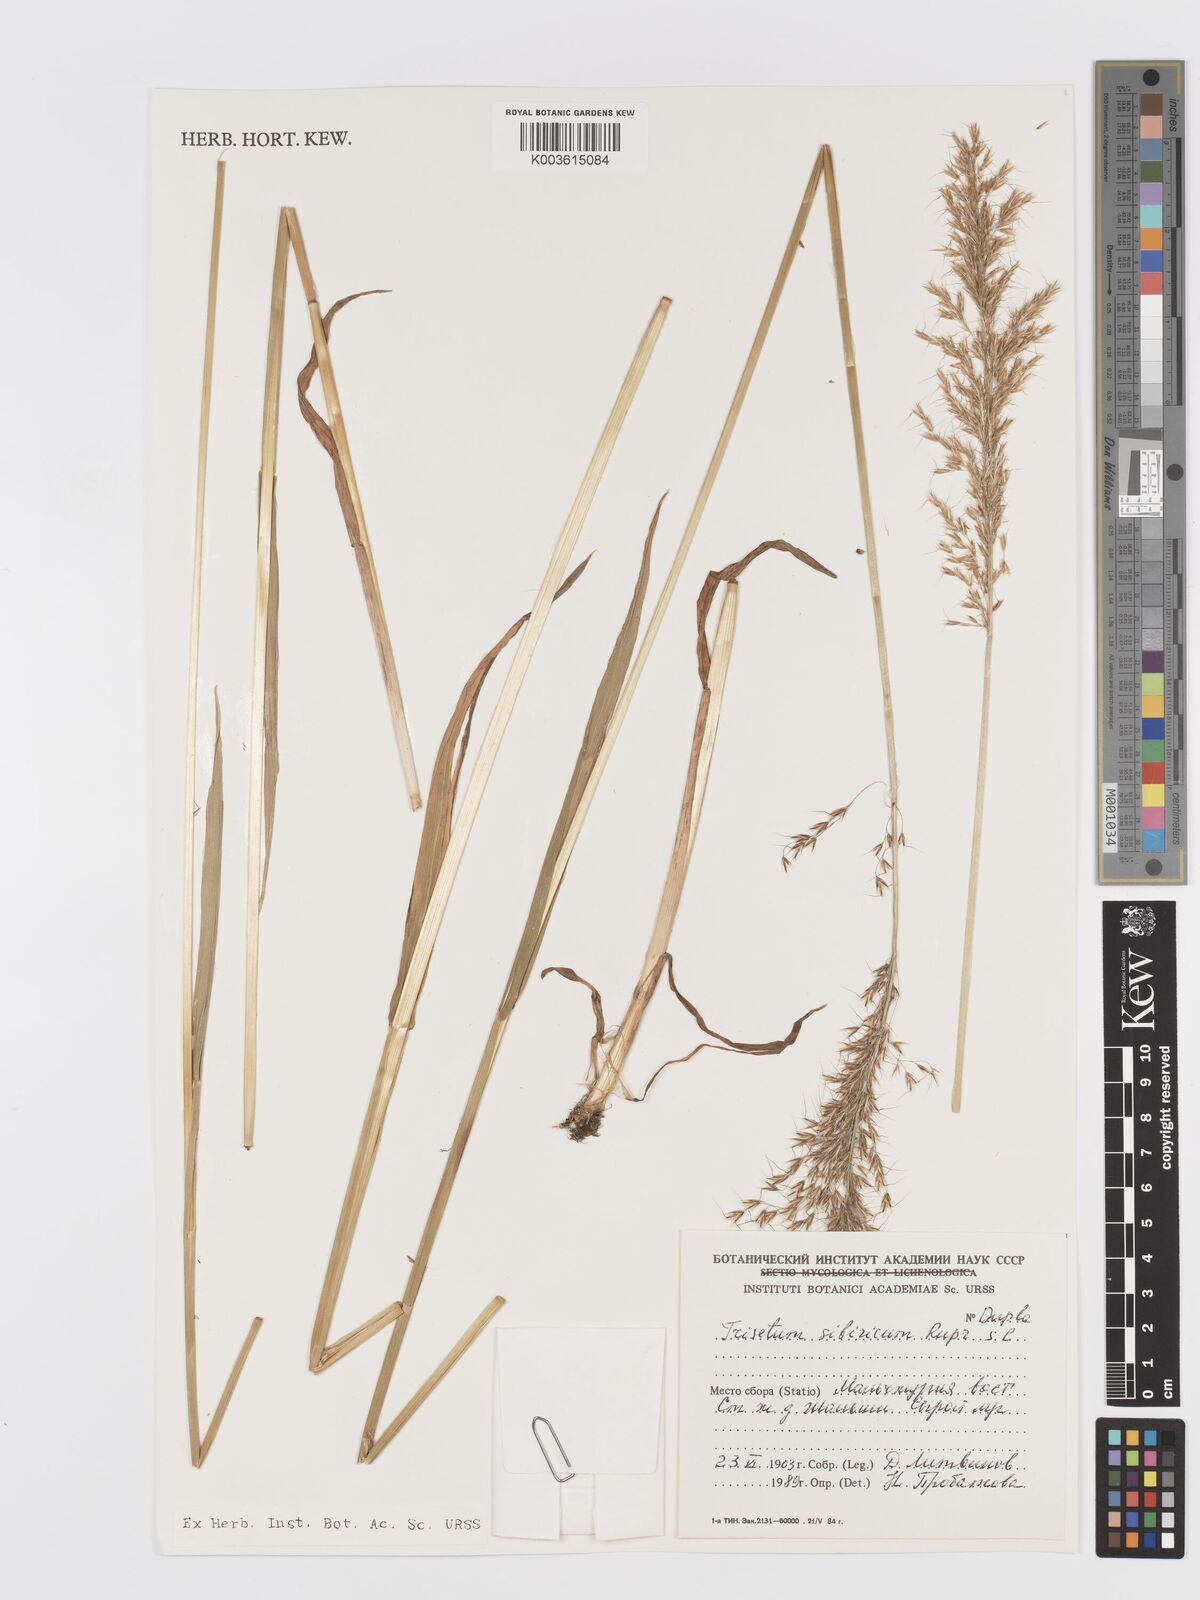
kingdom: Plantae
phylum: Tracheophyta
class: Liliopsida
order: Poales
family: Poaceae
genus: Sibirotrisetum
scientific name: Sibirotrisetum sibiricum
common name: Siberian false oat
